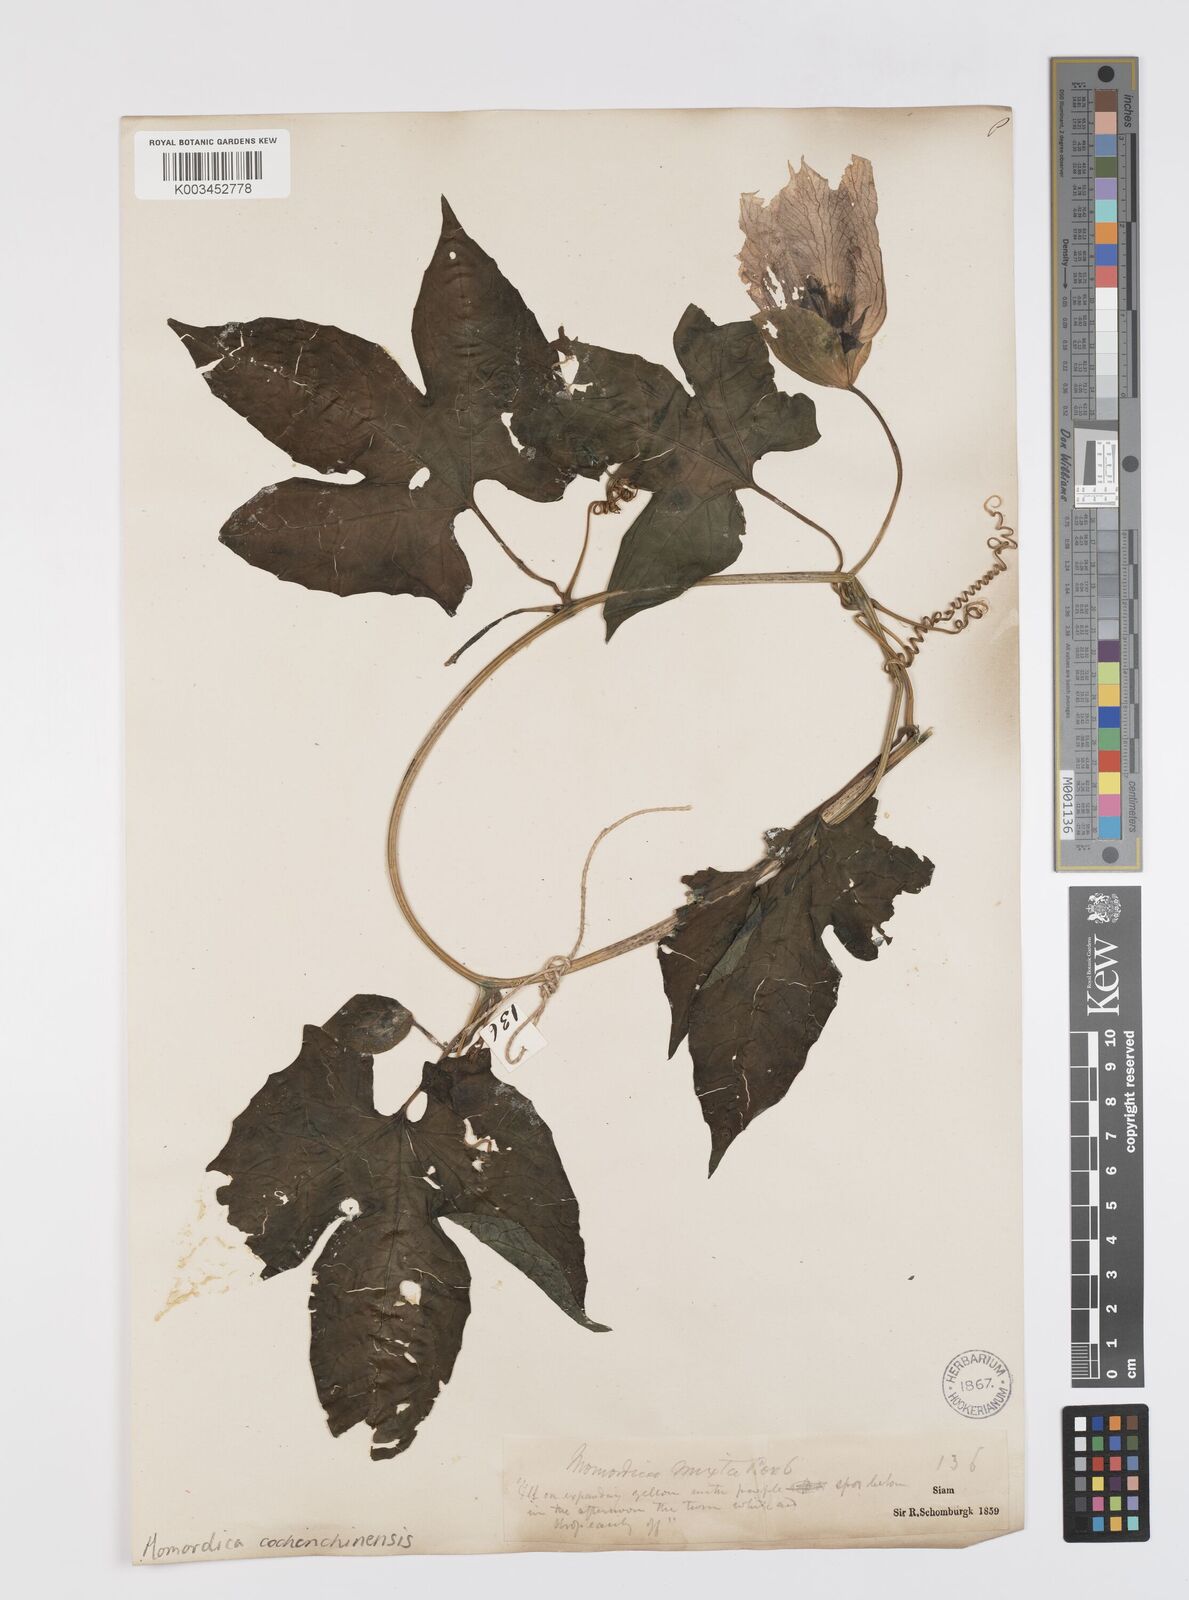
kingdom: Plantae
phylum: Tracheophyta
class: Magnoliopsida
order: Cucurbitales
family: Cucurbitaceae
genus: Momordica
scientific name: Momordica cochinchinensis
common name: Chinese bitter-cucumber
